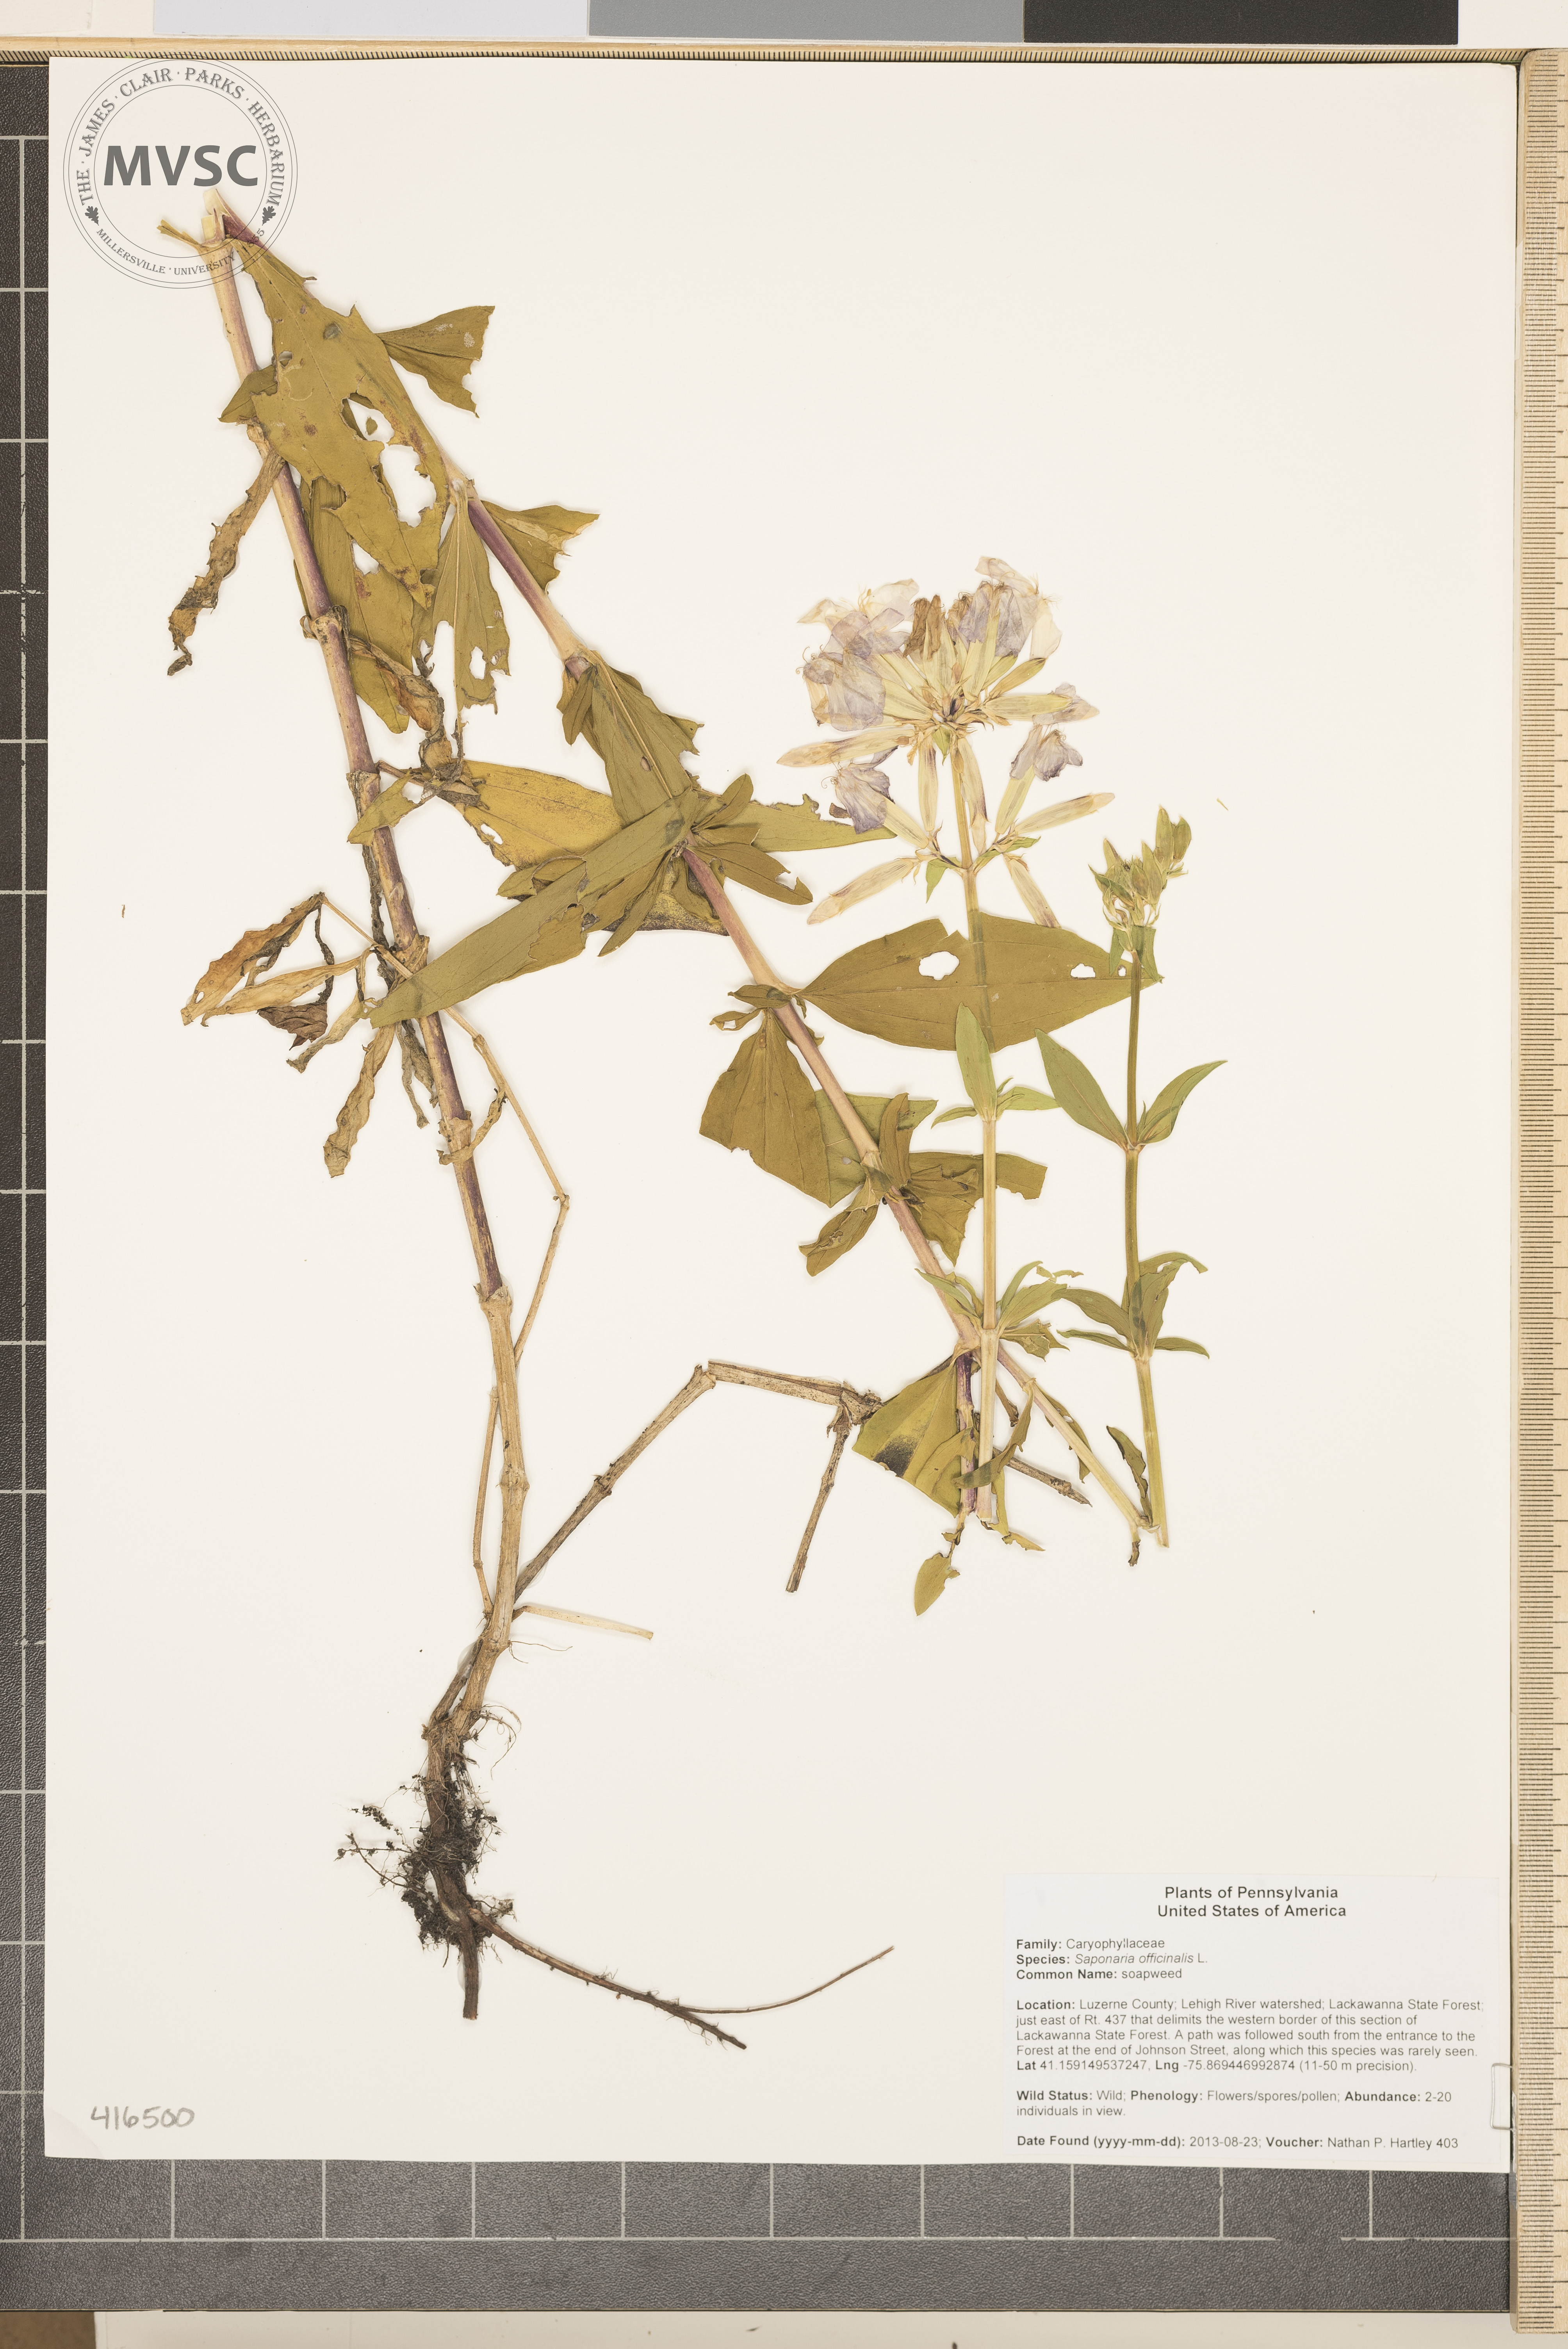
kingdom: Plantae
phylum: Tracheophyta
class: Magnoliopsida
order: Caryophyllales
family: Caryophyllaceae
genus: Saponaria
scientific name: Saponaria officinalis
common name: soapweed
